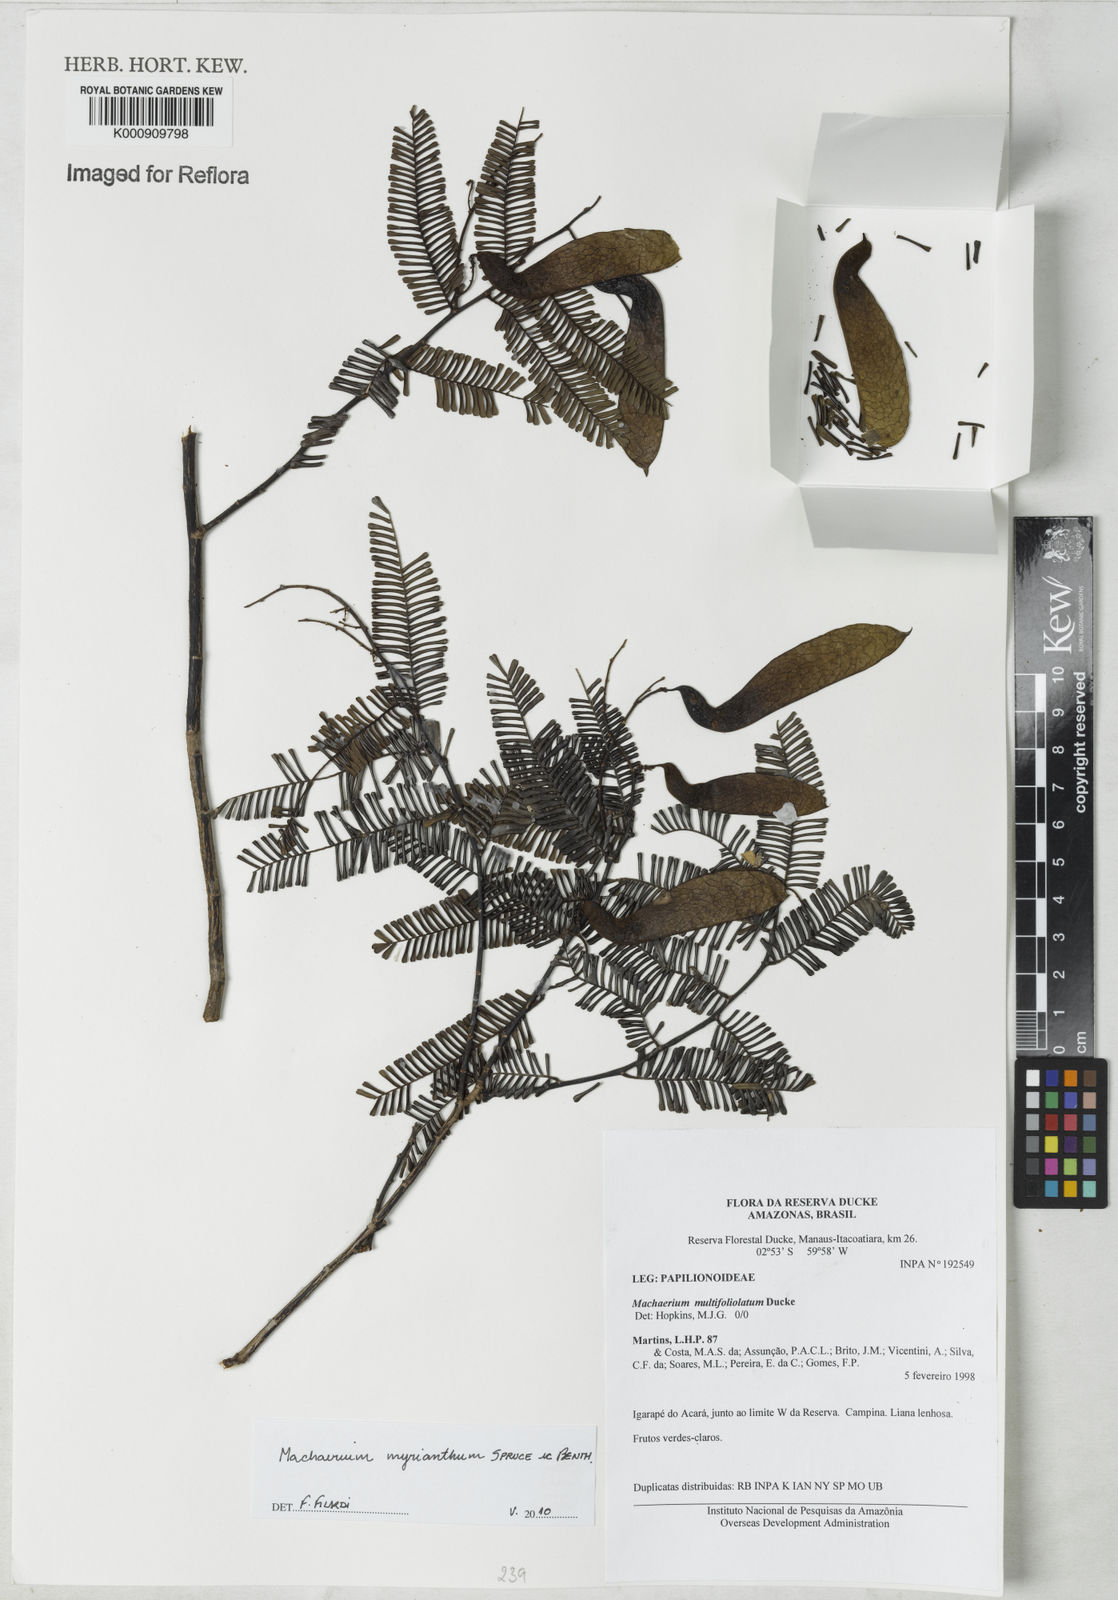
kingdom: Plantae
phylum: Tracheophyta
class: Magnoliopsida
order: Fabales
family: Fabaceae
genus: Machaerium
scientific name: Machaerium multifoliolatum
